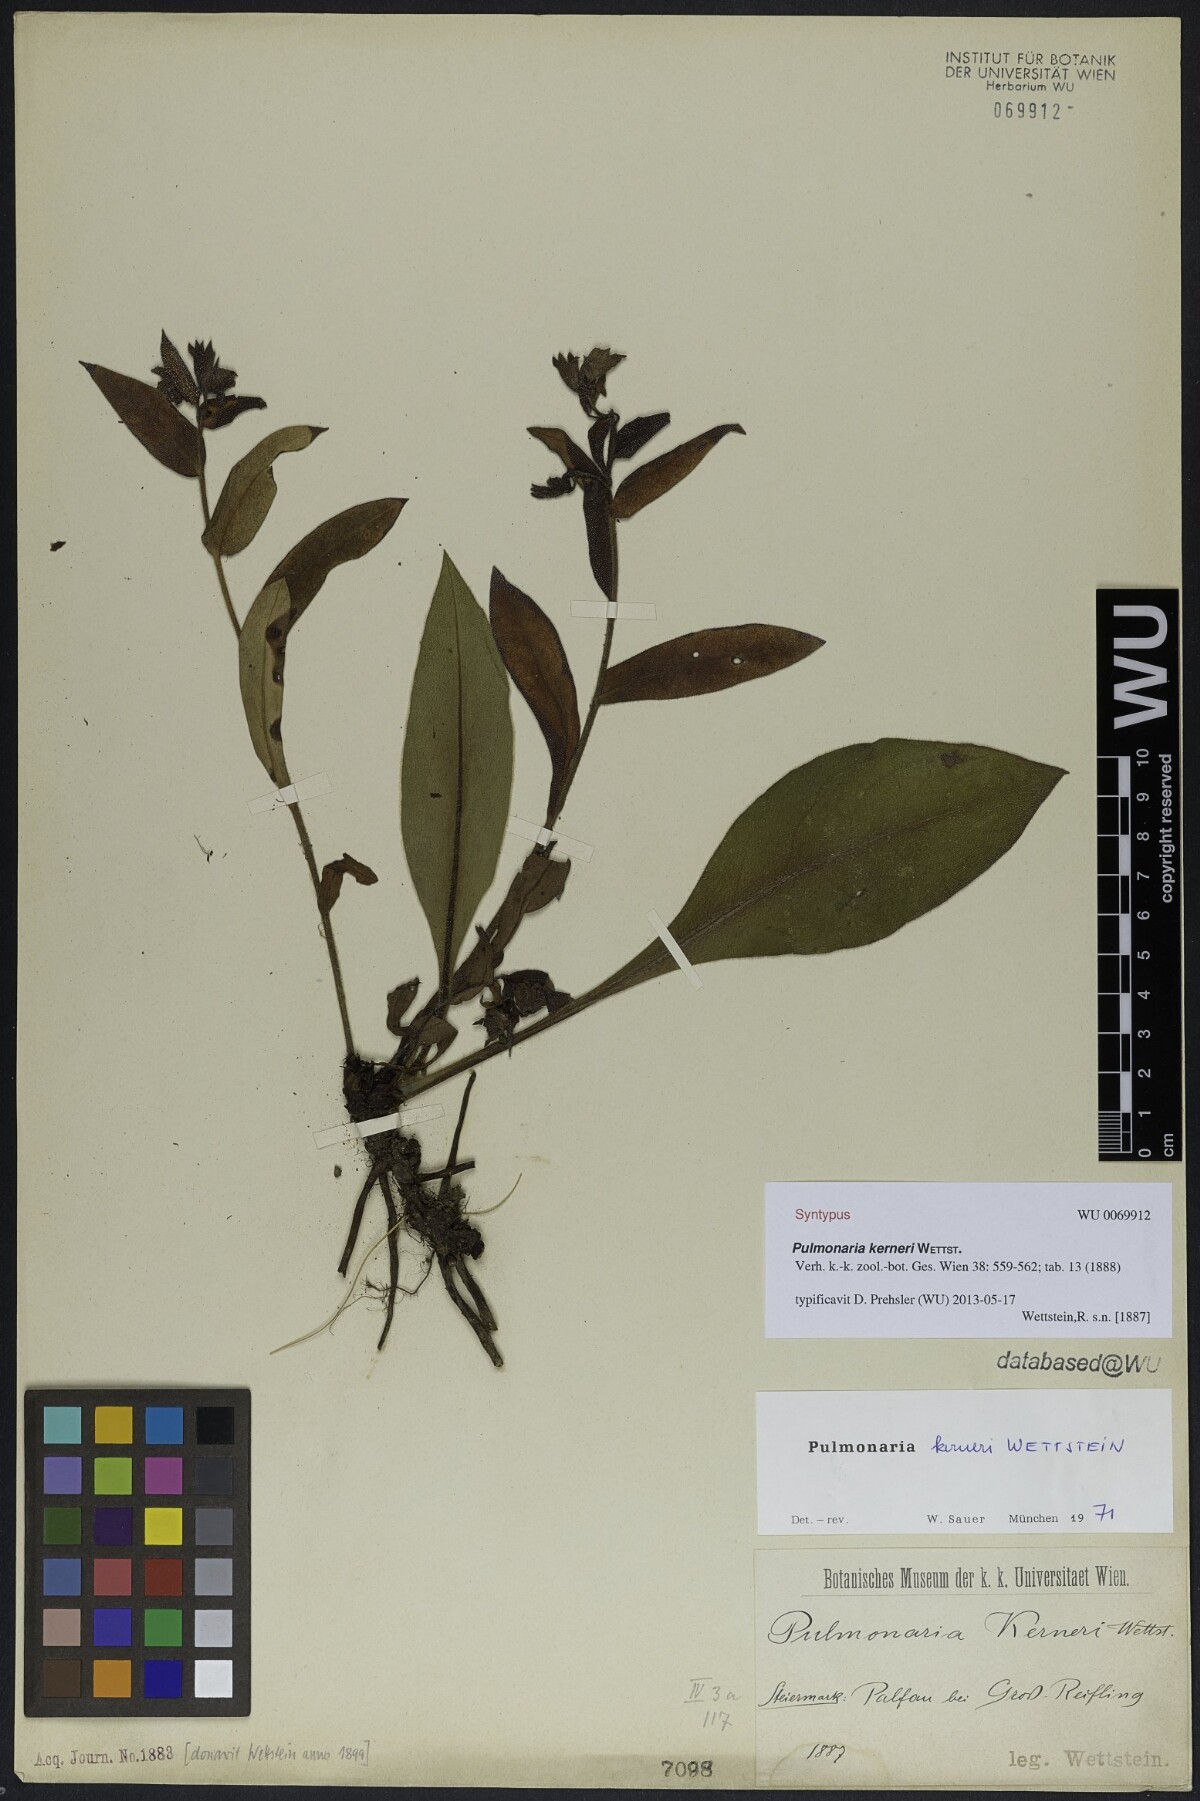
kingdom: Plantae
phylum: Tracheophyta
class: Magnoliopsida
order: Boraginales
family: Boraginaceae
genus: Pulmonaria
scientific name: Pulmonaria kerneri
